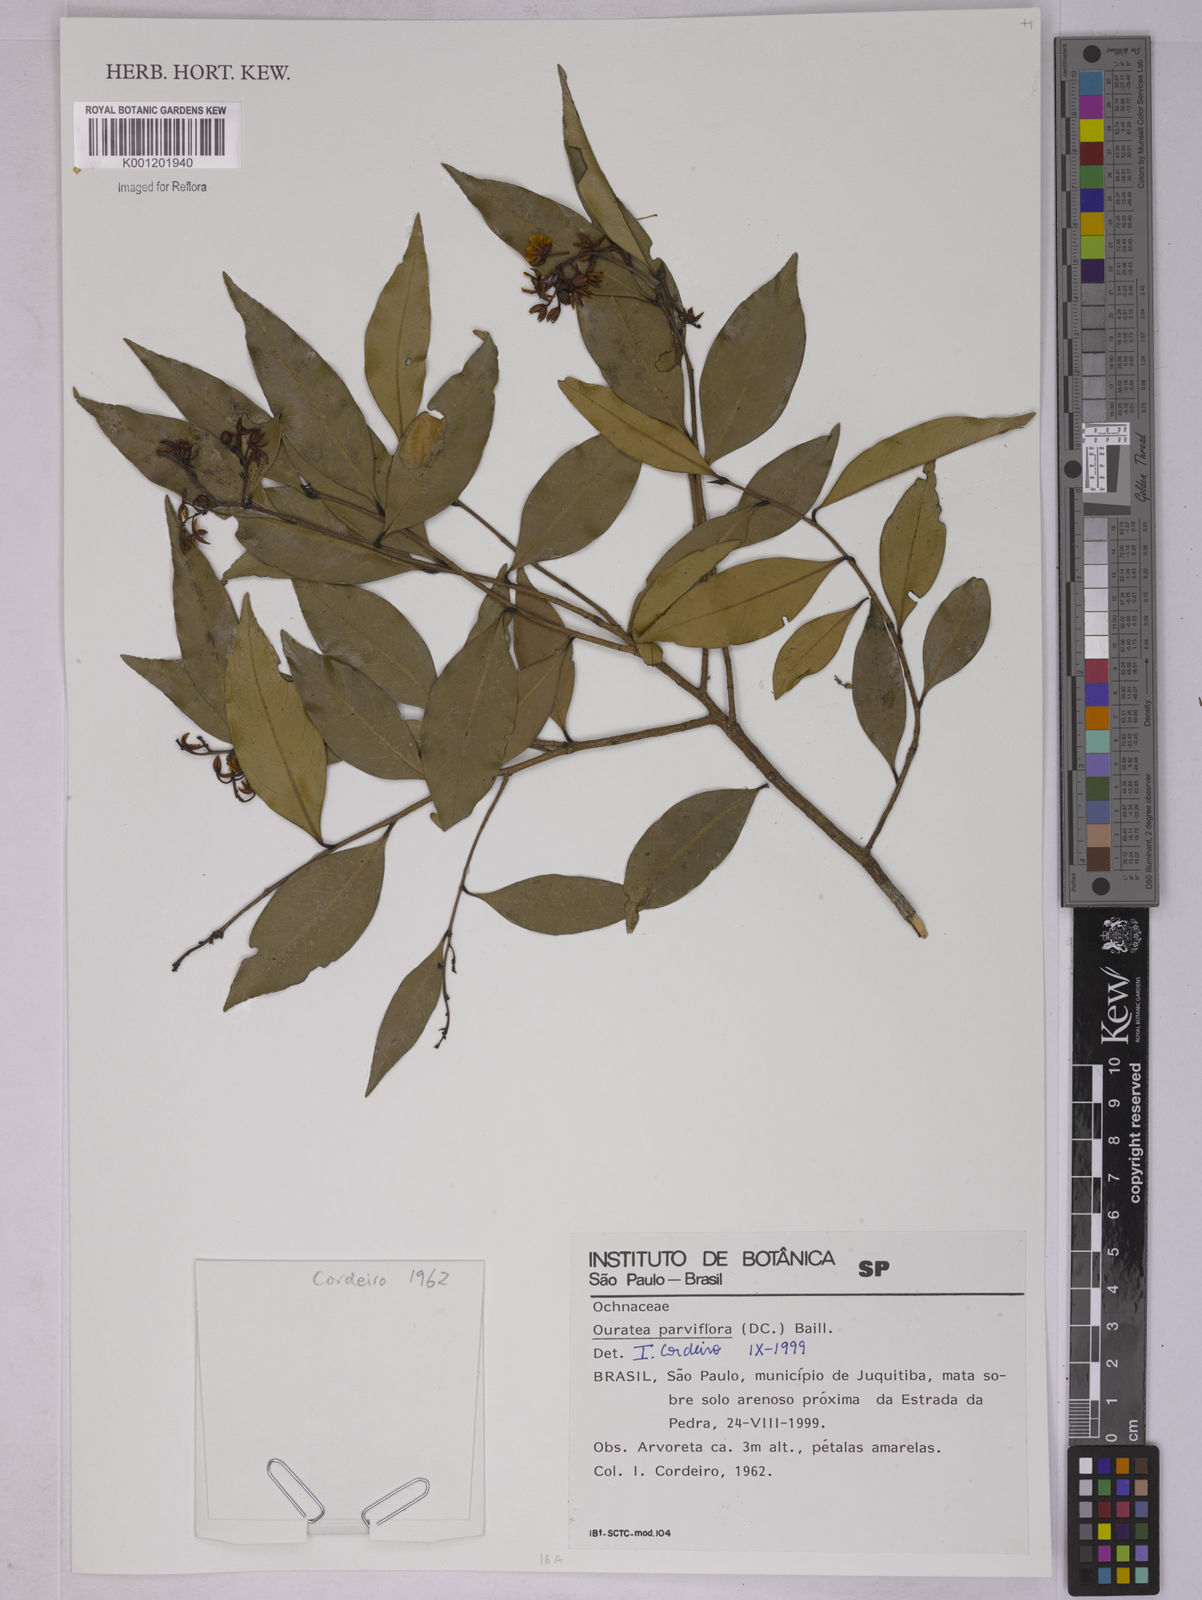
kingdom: Plantae
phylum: Tracheophyta
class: Magnoliopsida
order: Malpighiales
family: Ochnaceae
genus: Ouratea
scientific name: Ouratea parvifolia
